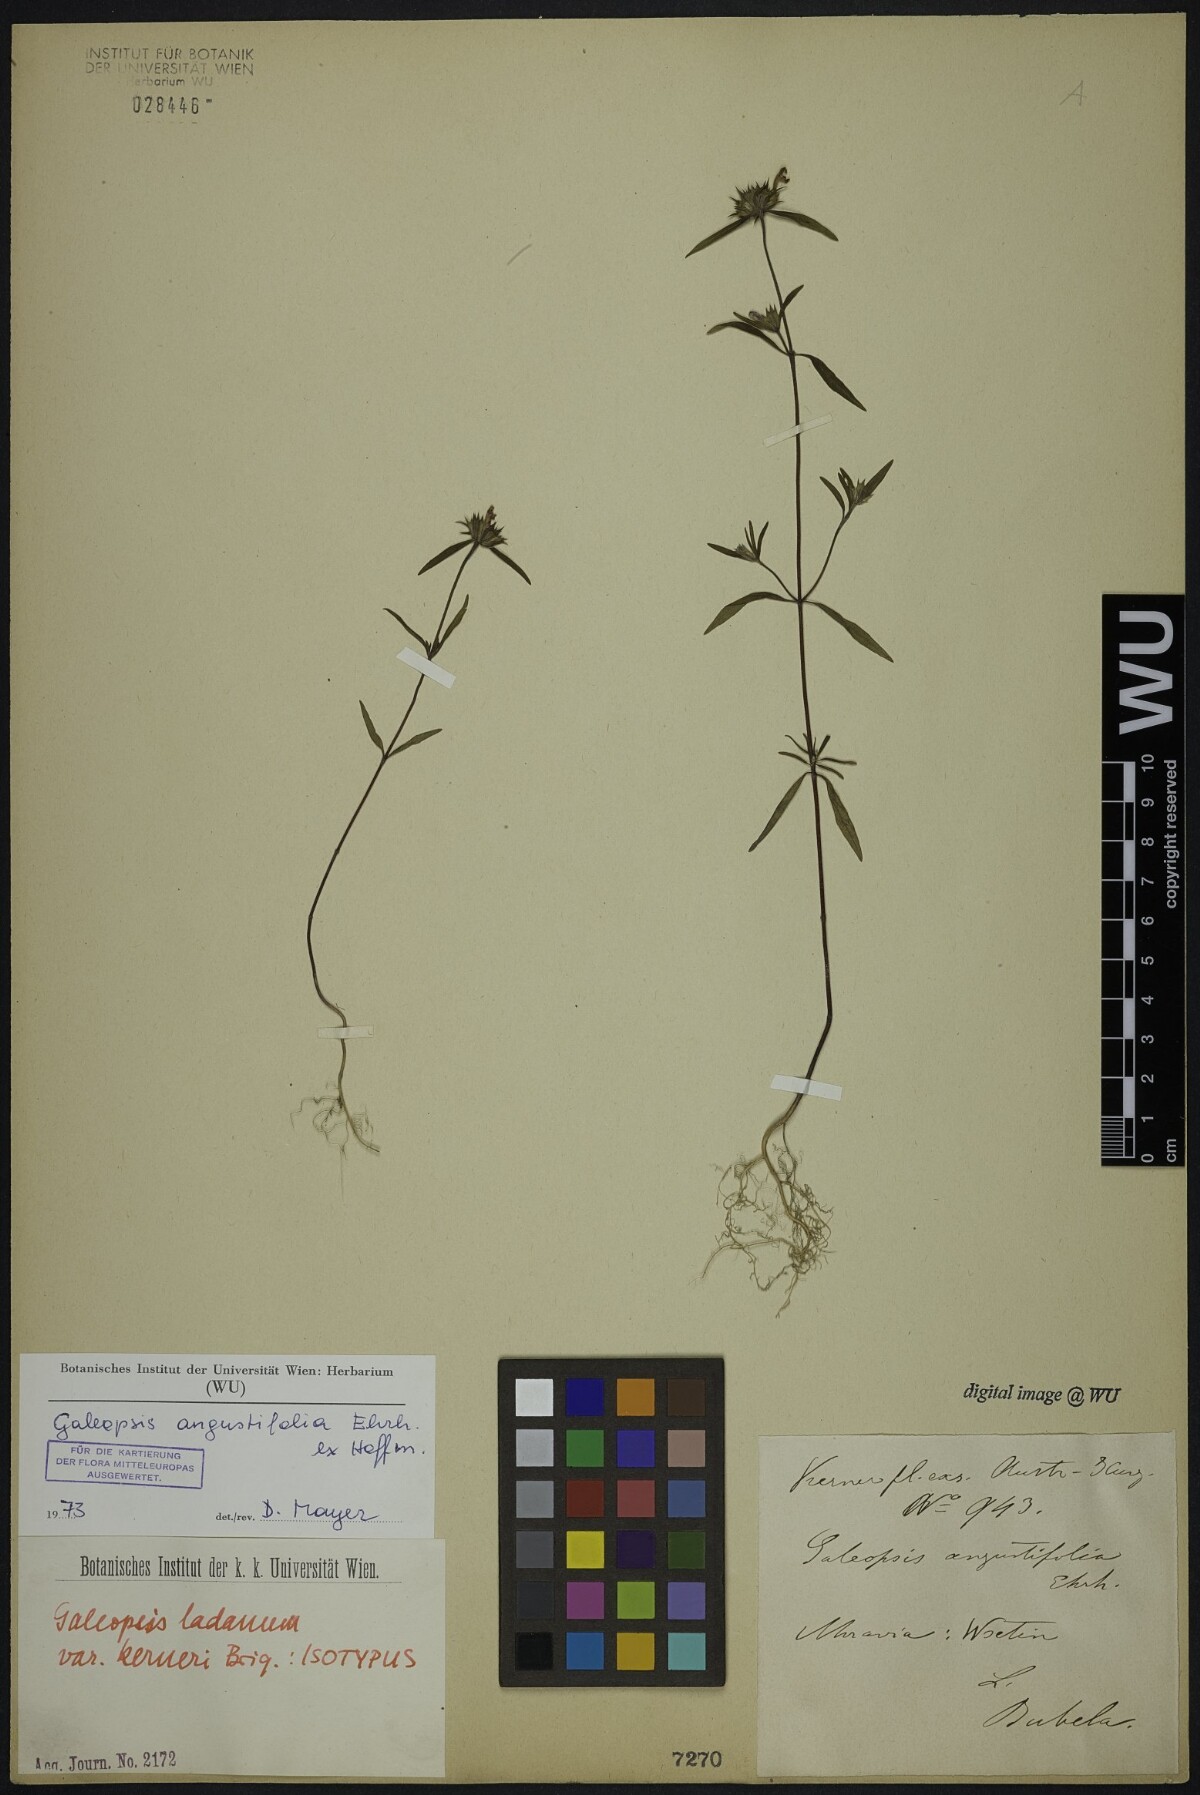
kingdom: Plantae
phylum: Tracheophyta
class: Magnoliopsida
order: Lamiales
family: Lamiaceae
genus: Galeopsis
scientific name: Galeopsis angustifolia
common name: Red hemp-nettle
